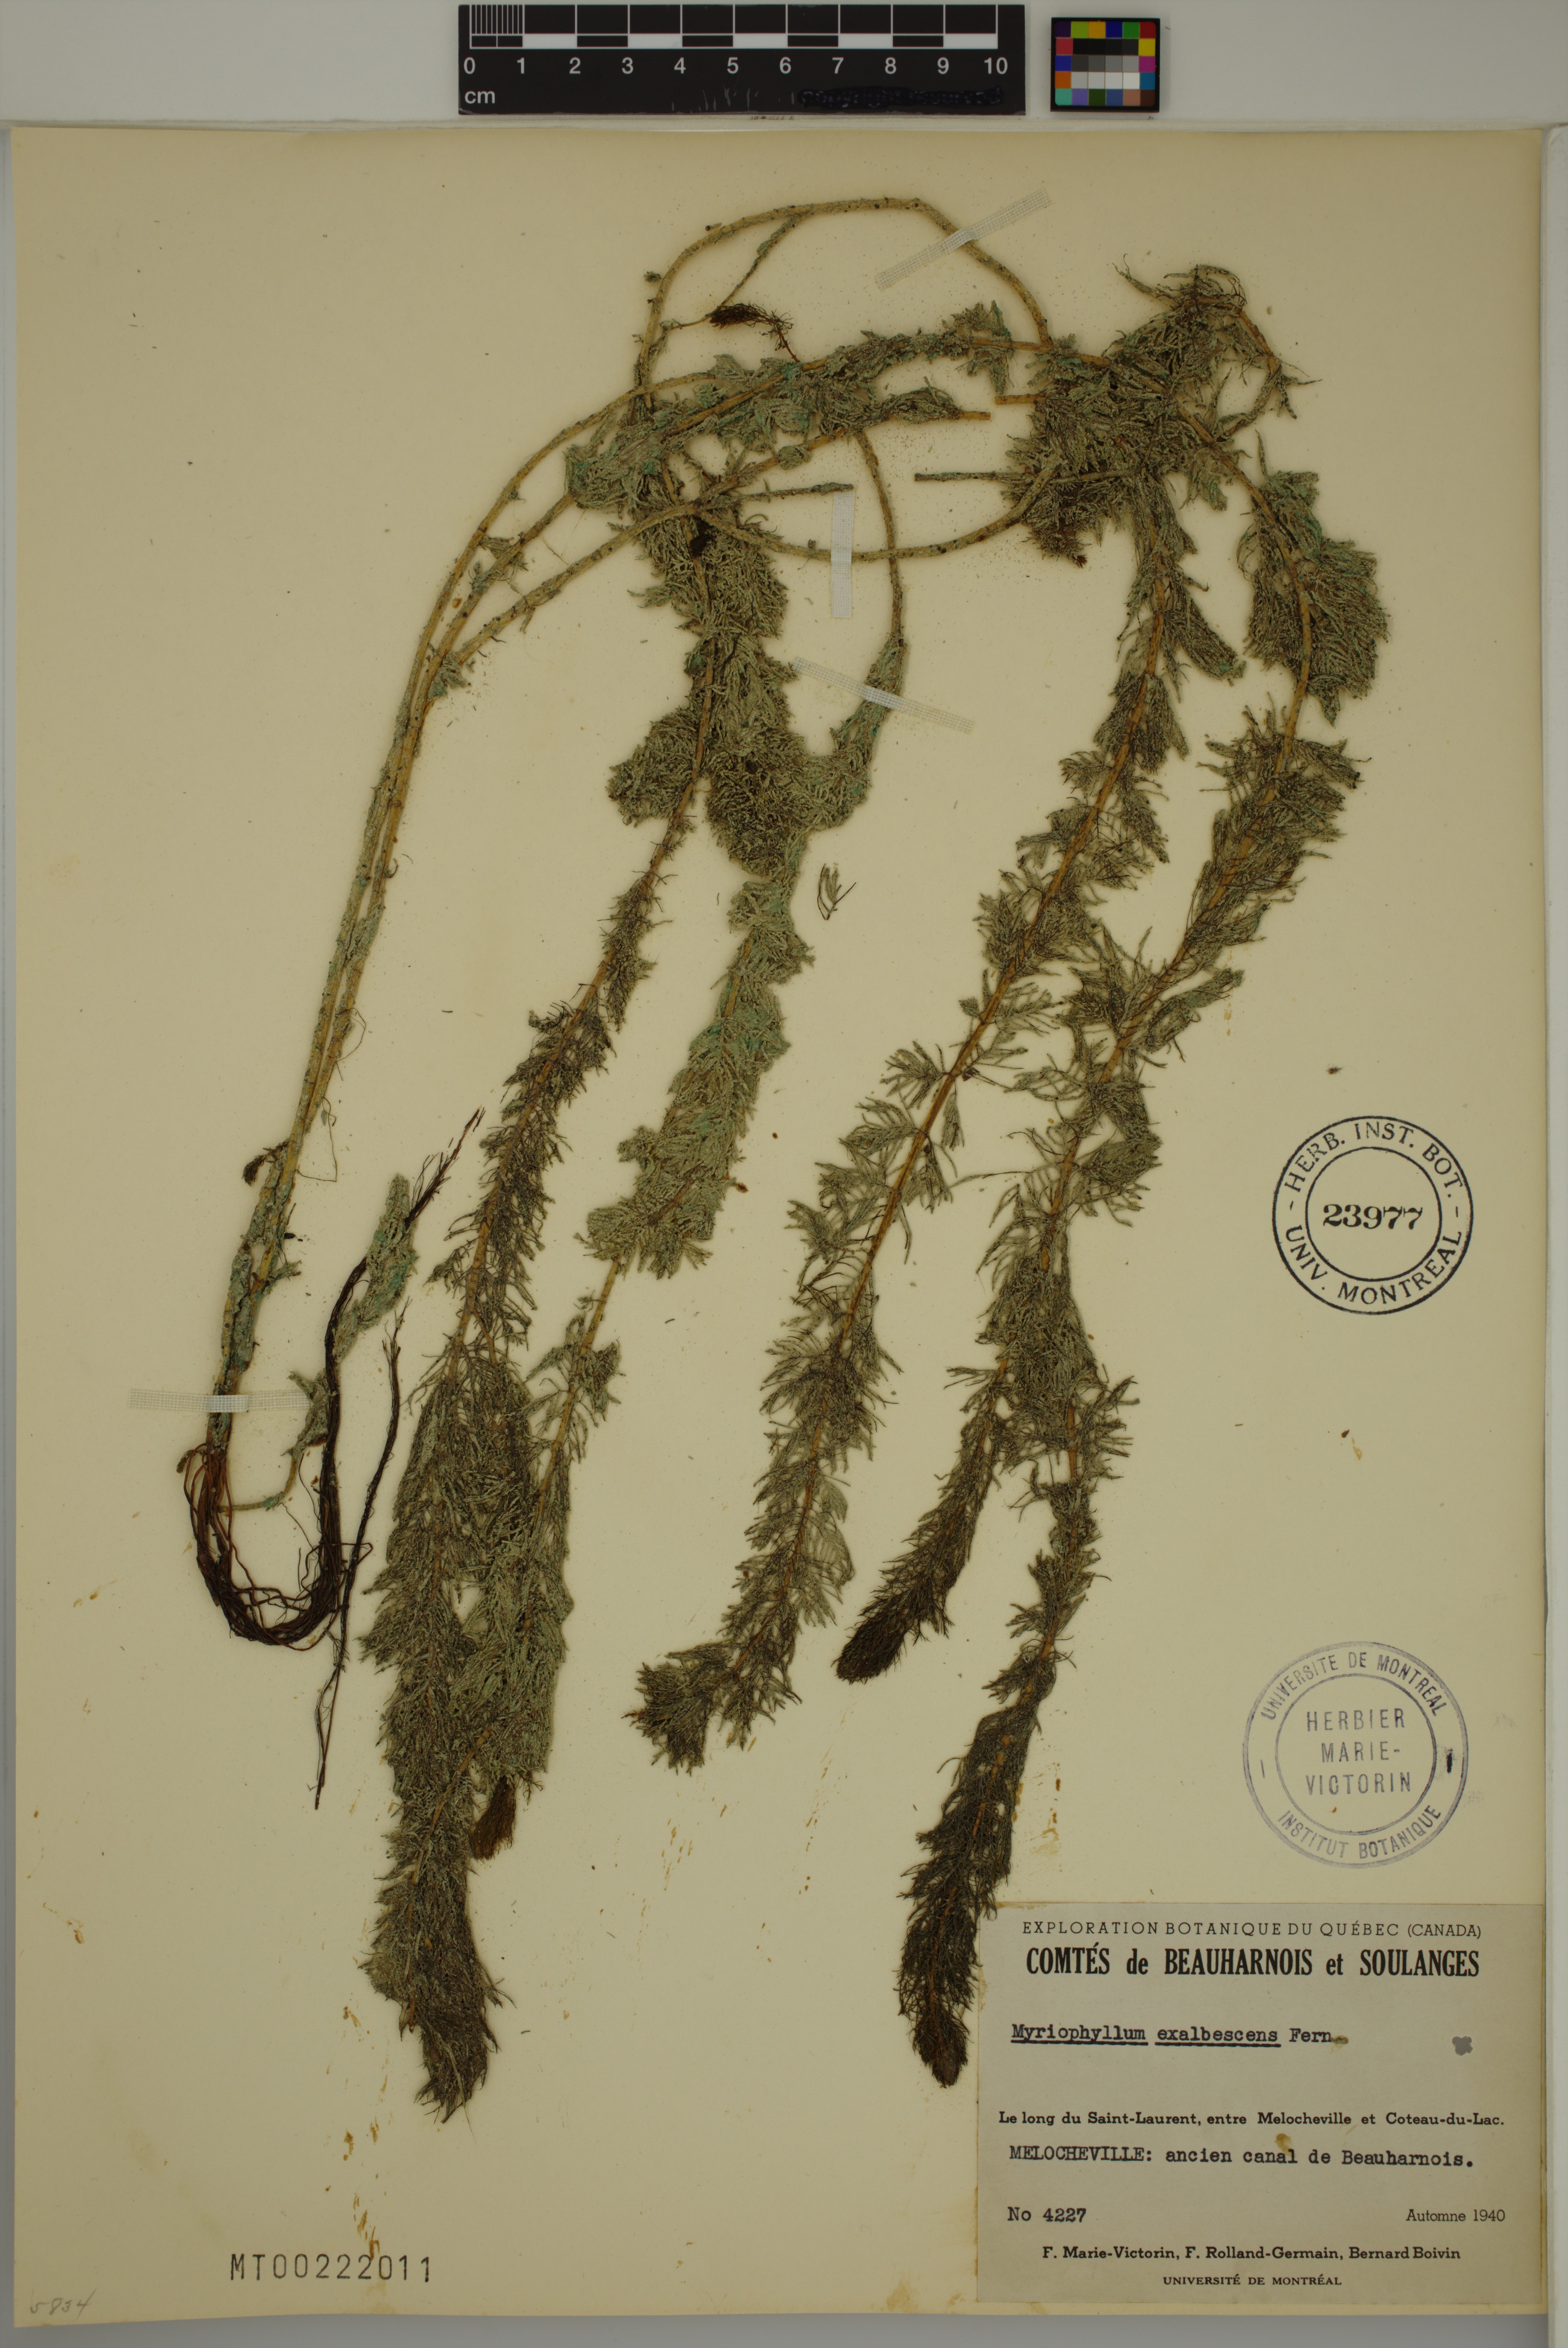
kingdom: Plantae
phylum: Tracheophyta
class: Magnoliopsida
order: Saxifragales
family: Haloragaceae
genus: Myriophyllum
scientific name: Myriophyllum sibiricum
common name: Siberian water-milfoil
